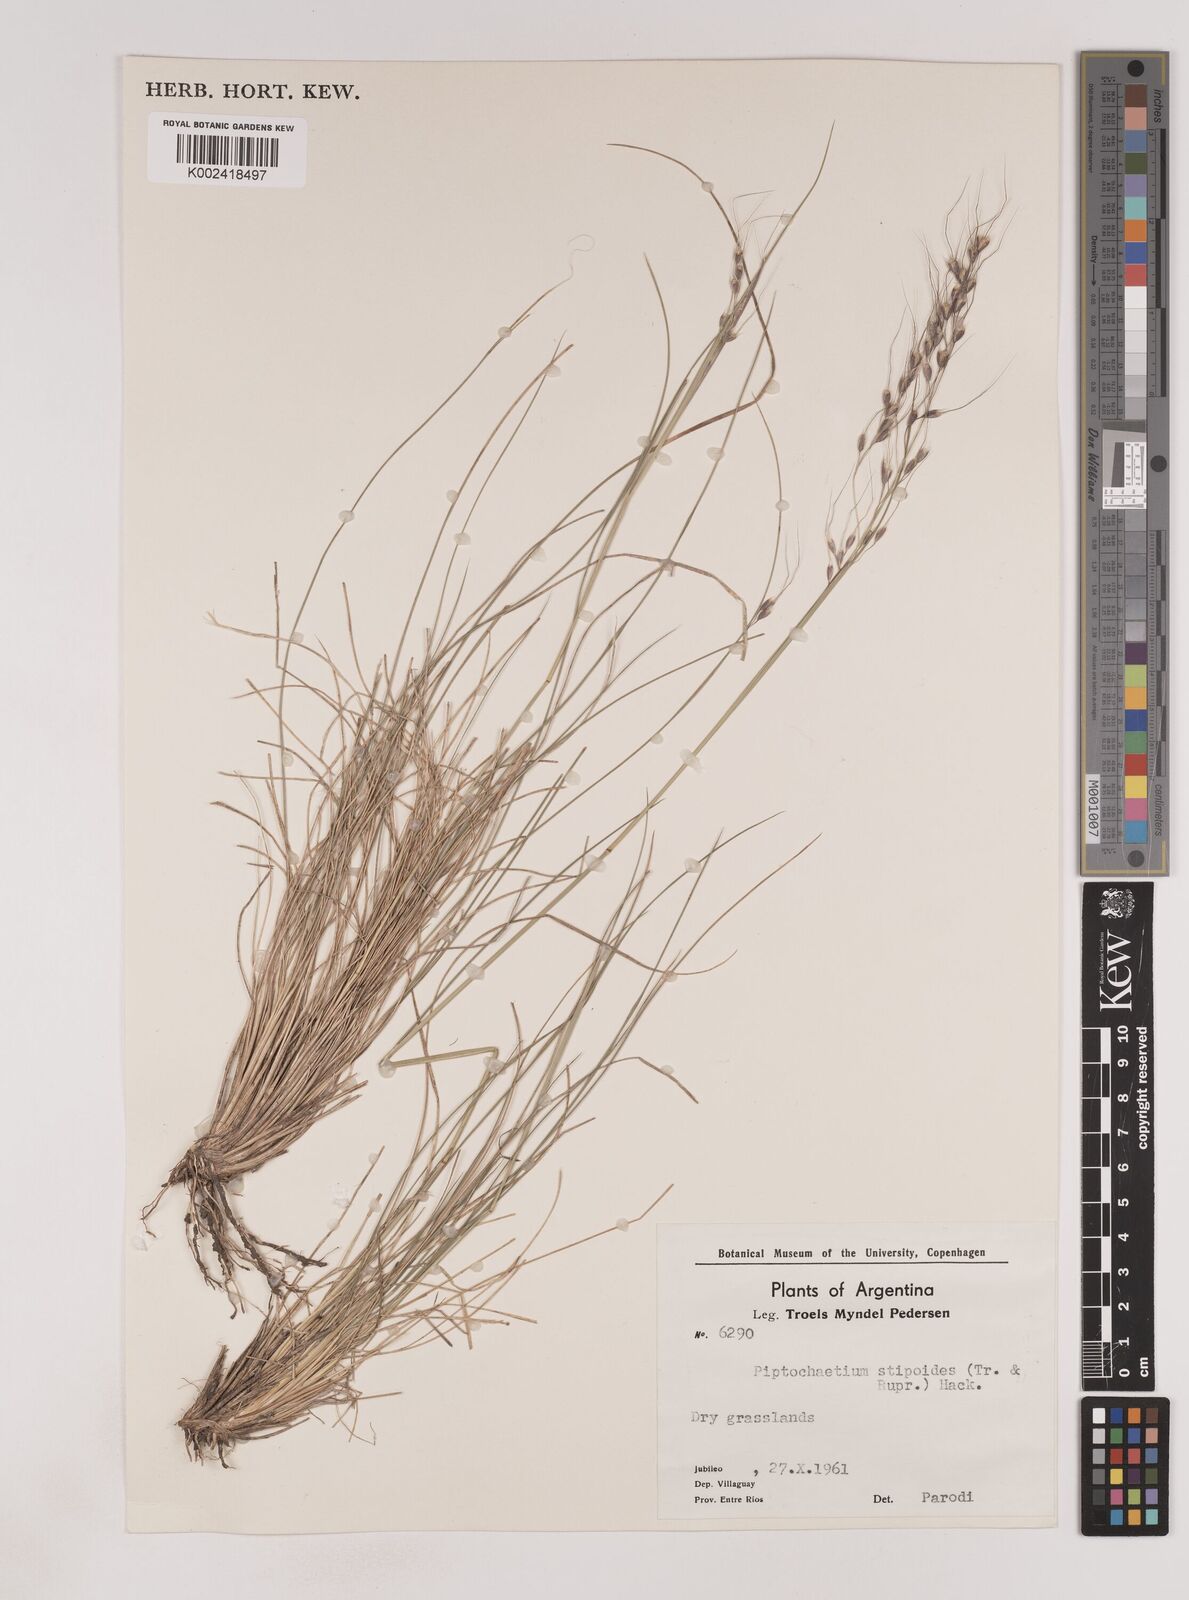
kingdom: Plantae
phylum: Tracheophyta
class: Liliopsida
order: Poales
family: Poaceae
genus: Piptochaetium
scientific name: Piptochaetium stipoides
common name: Purple speargrass
